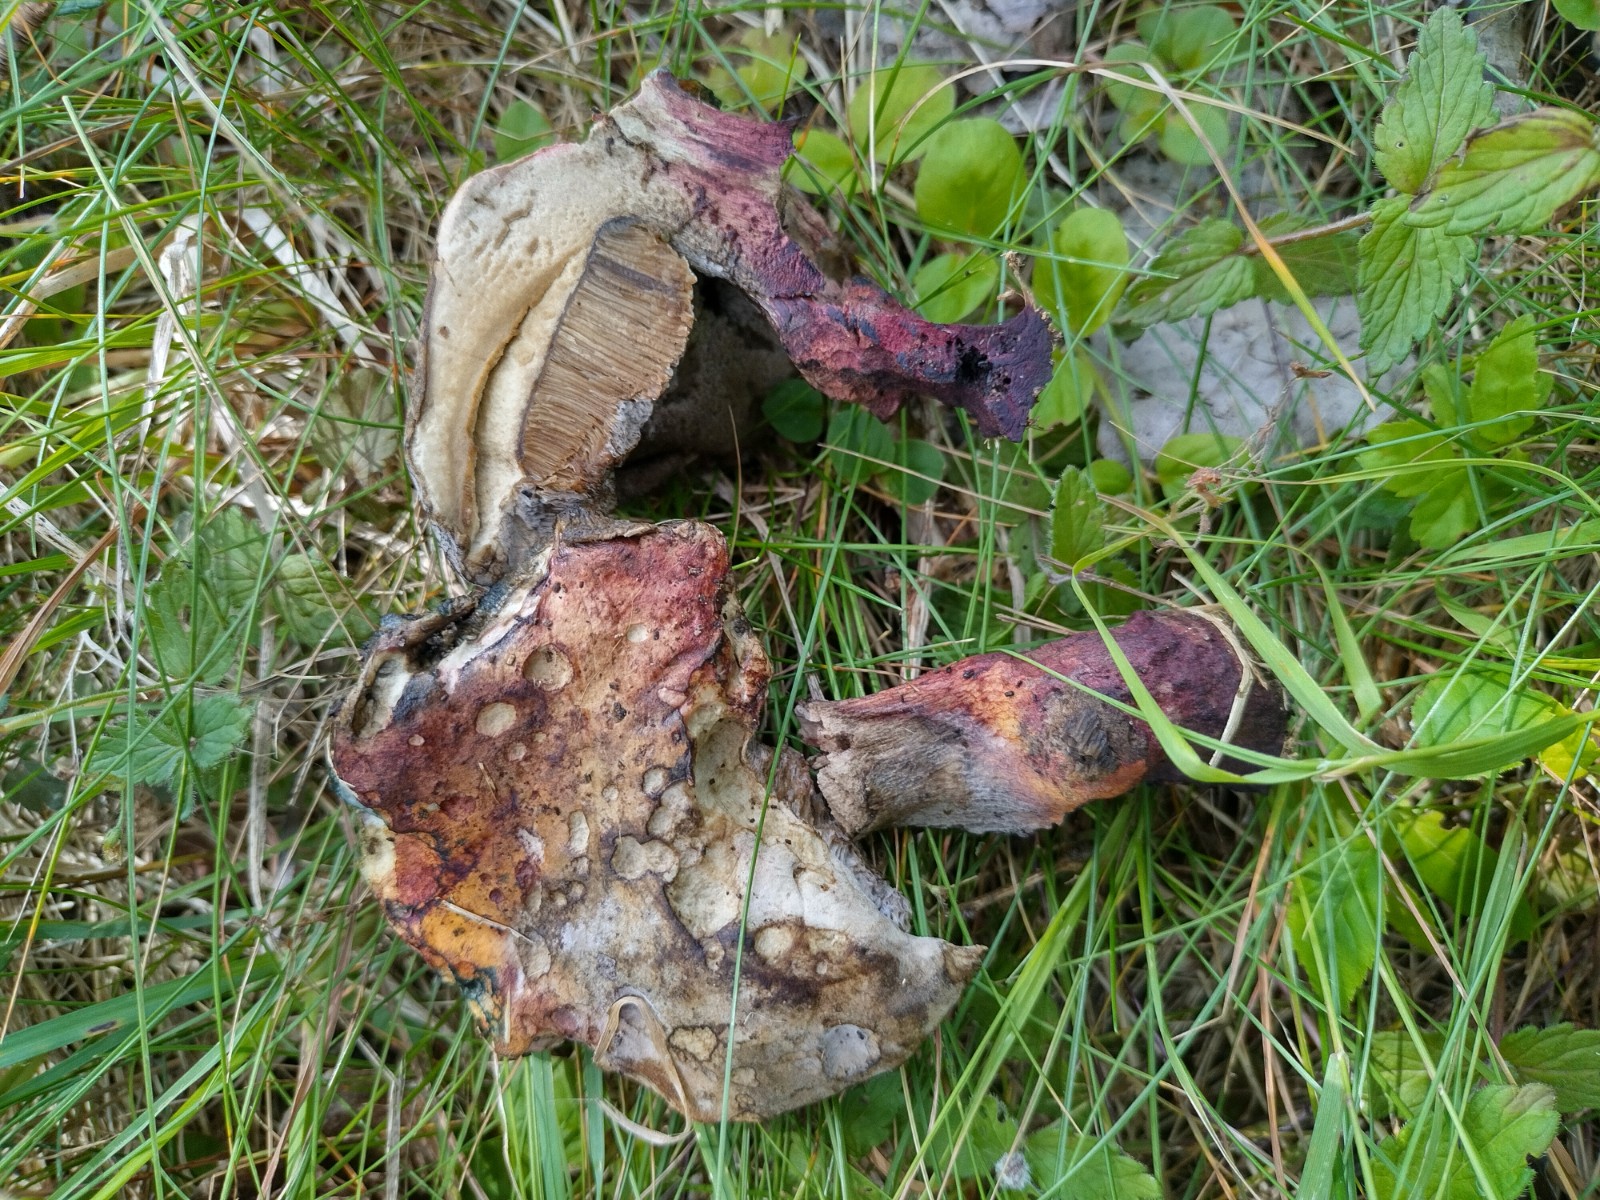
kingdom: Fungi
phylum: Basidiomycota
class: Agaricomycetes
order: Boletales
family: Boletaceae
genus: Suillellus
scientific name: Suillellus queletii
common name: glatstokket indigorørhat
